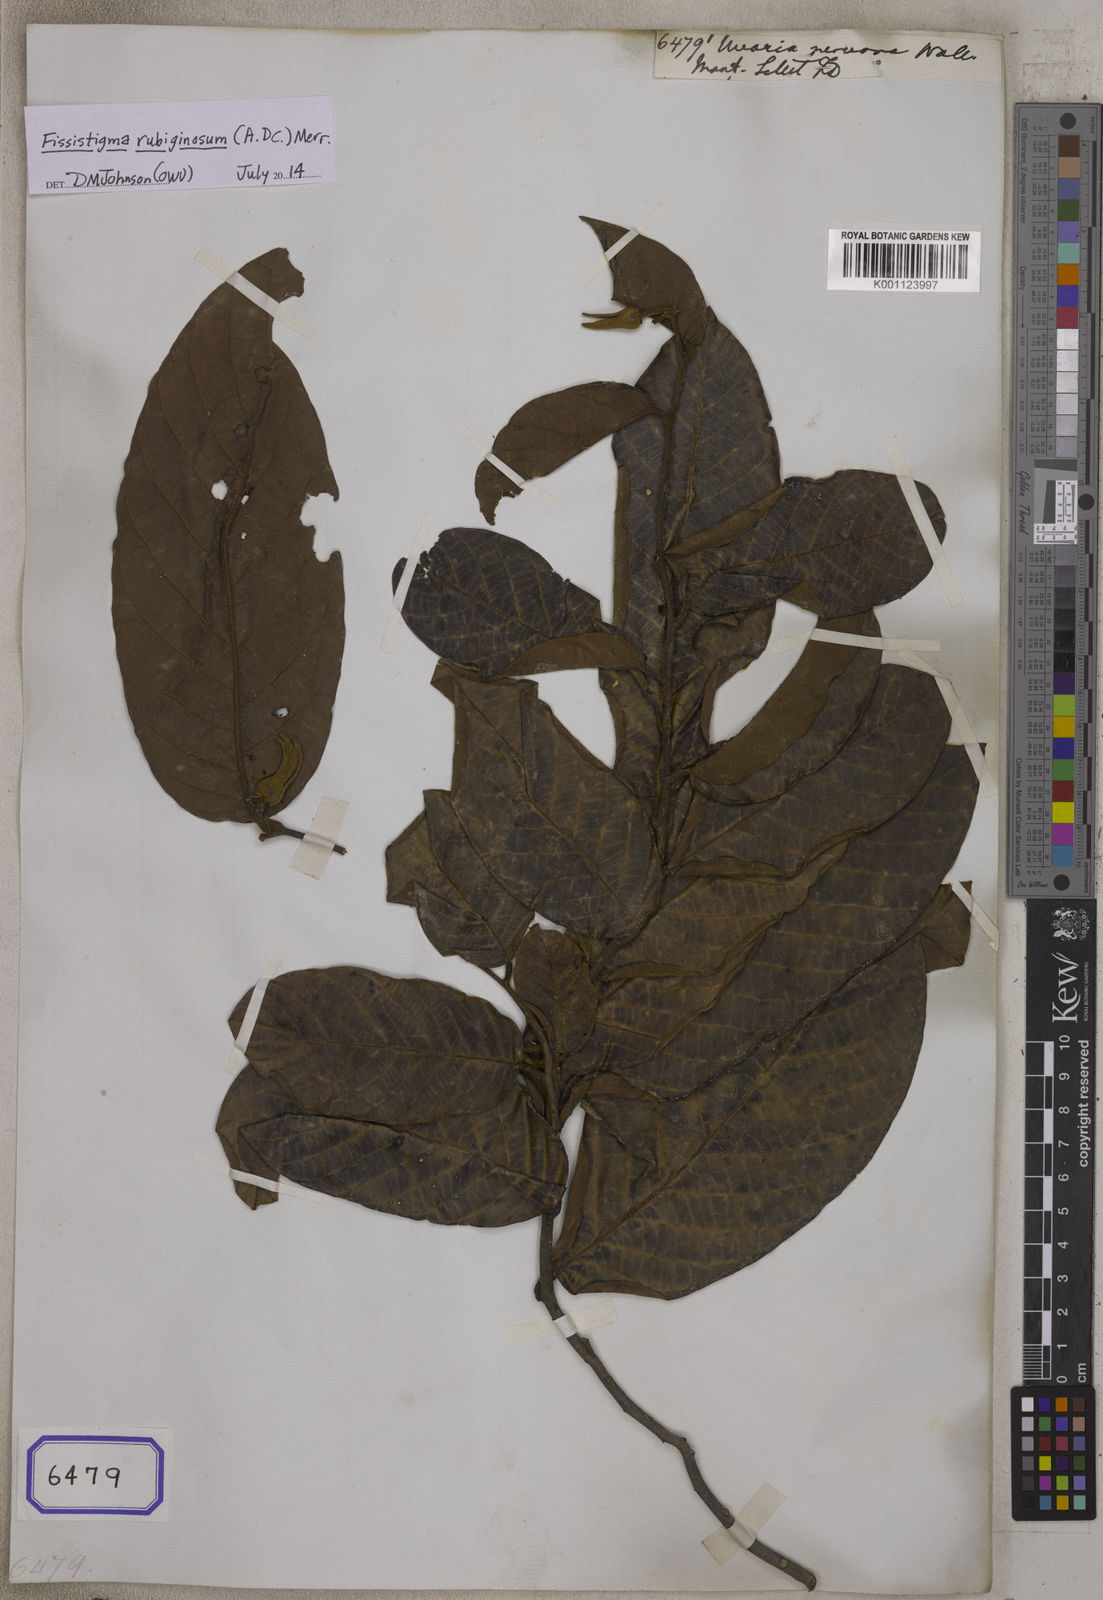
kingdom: Plantae
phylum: Tracheophyta
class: Magnoliopsida
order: Magnoliales
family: Annonaceae
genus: Fissistigma
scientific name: Fissistigma rubiginosum
